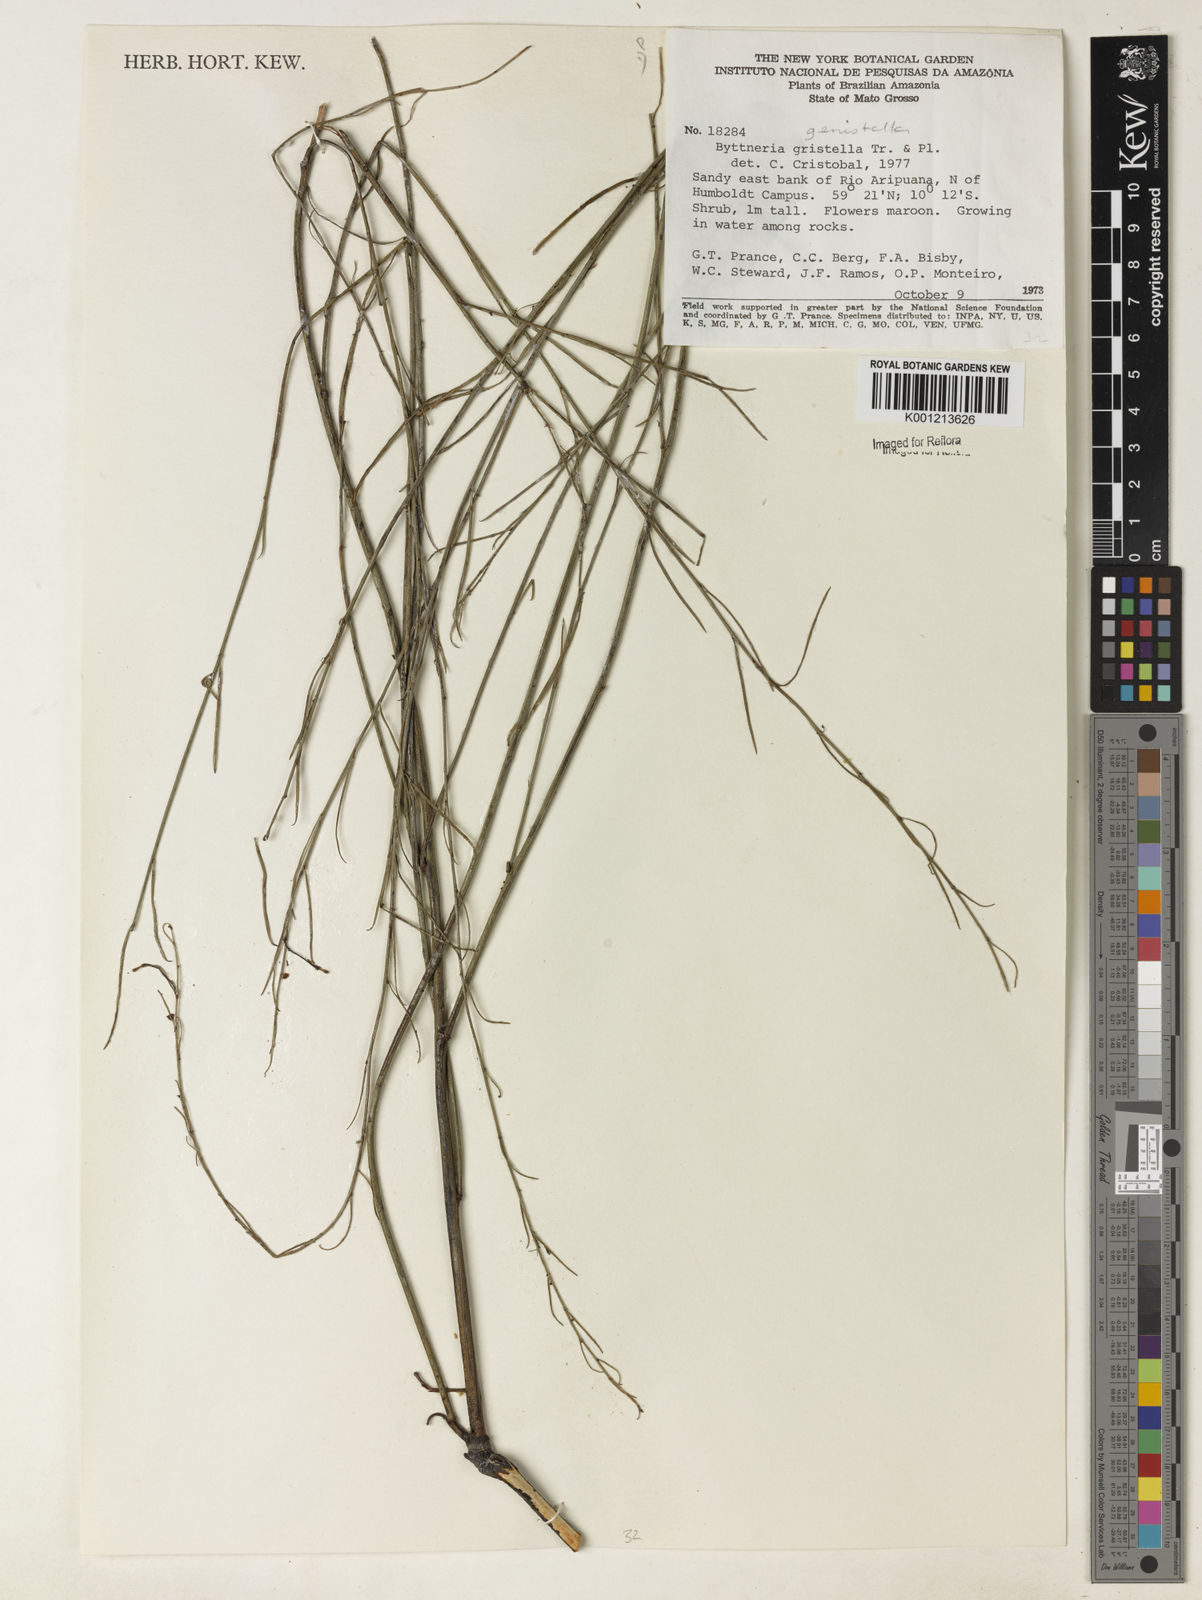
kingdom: Plantae
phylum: Tracheophyta
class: Magnoliopsida
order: Malvales
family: Malvaceae
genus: Byttneria
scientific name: Byttneria genistella
